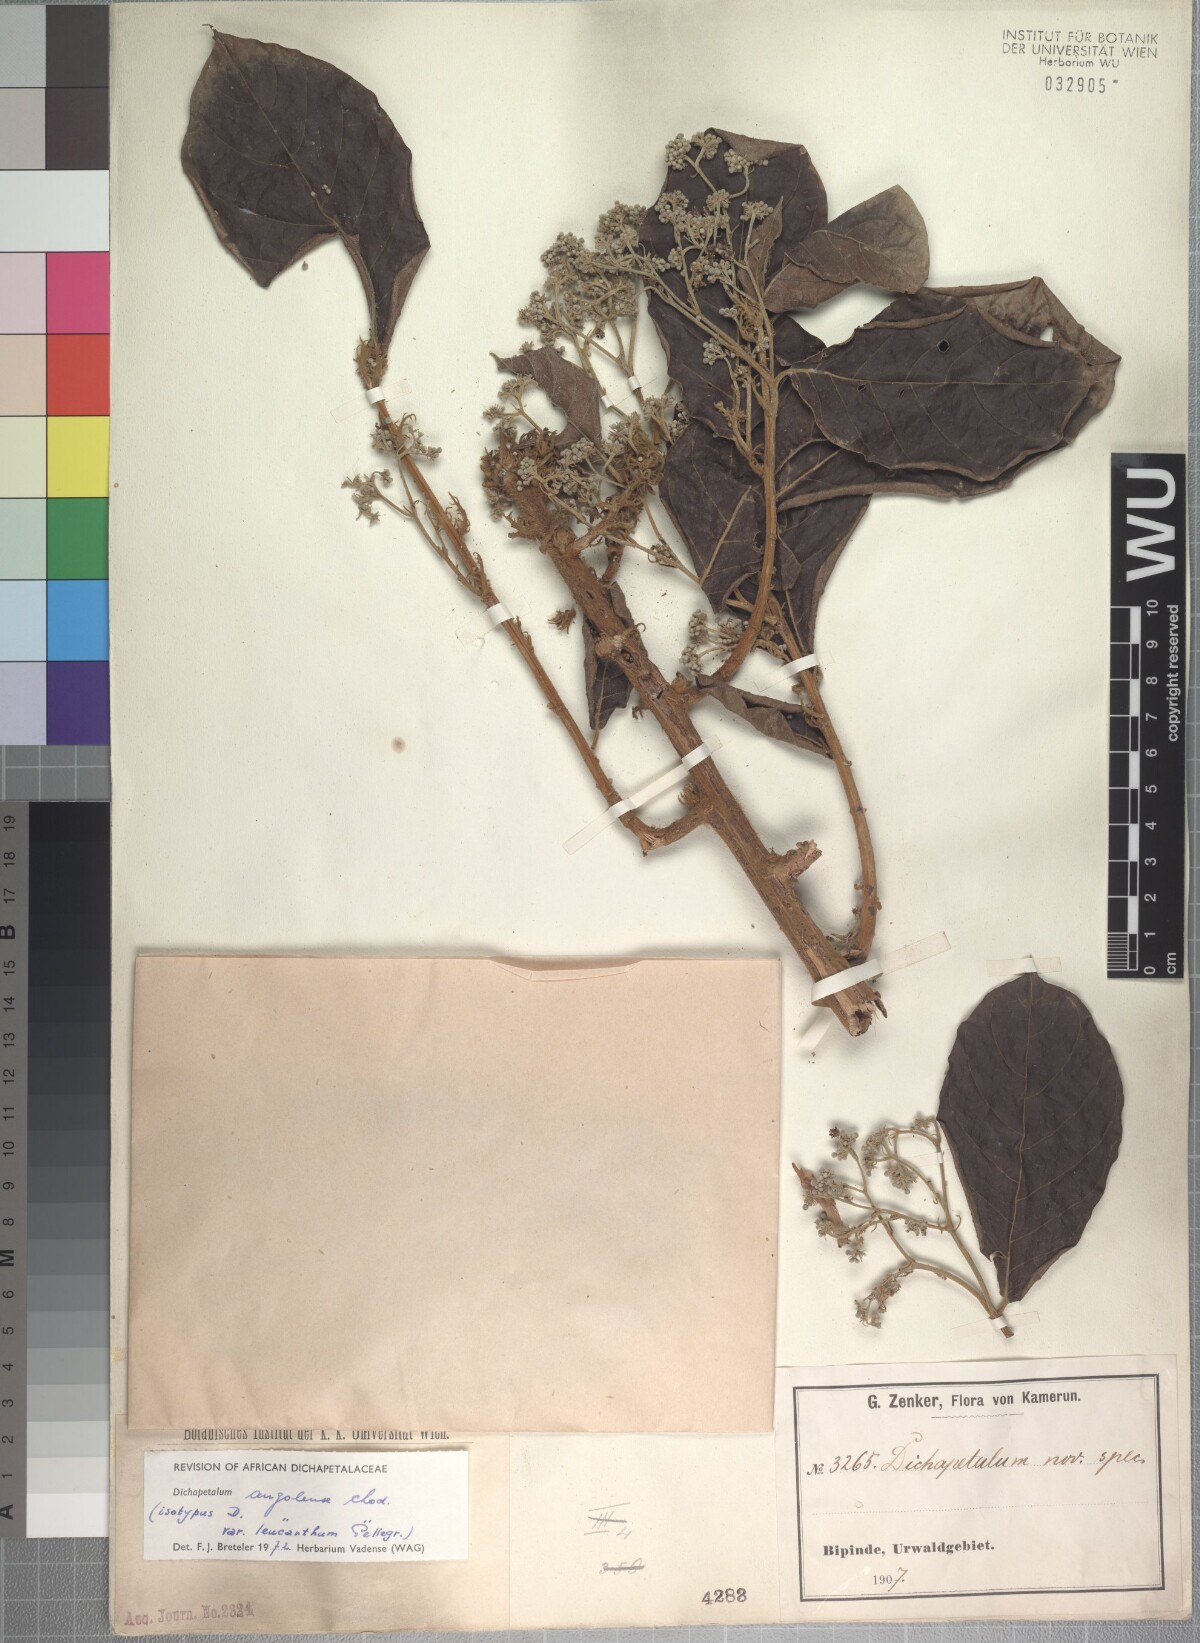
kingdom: Plantae
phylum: Tracheophyta
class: Magnoliopsida
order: Malpighiales
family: Dichapetalaceae
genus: Dichapetalum
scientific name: Dichapetalum angolense
